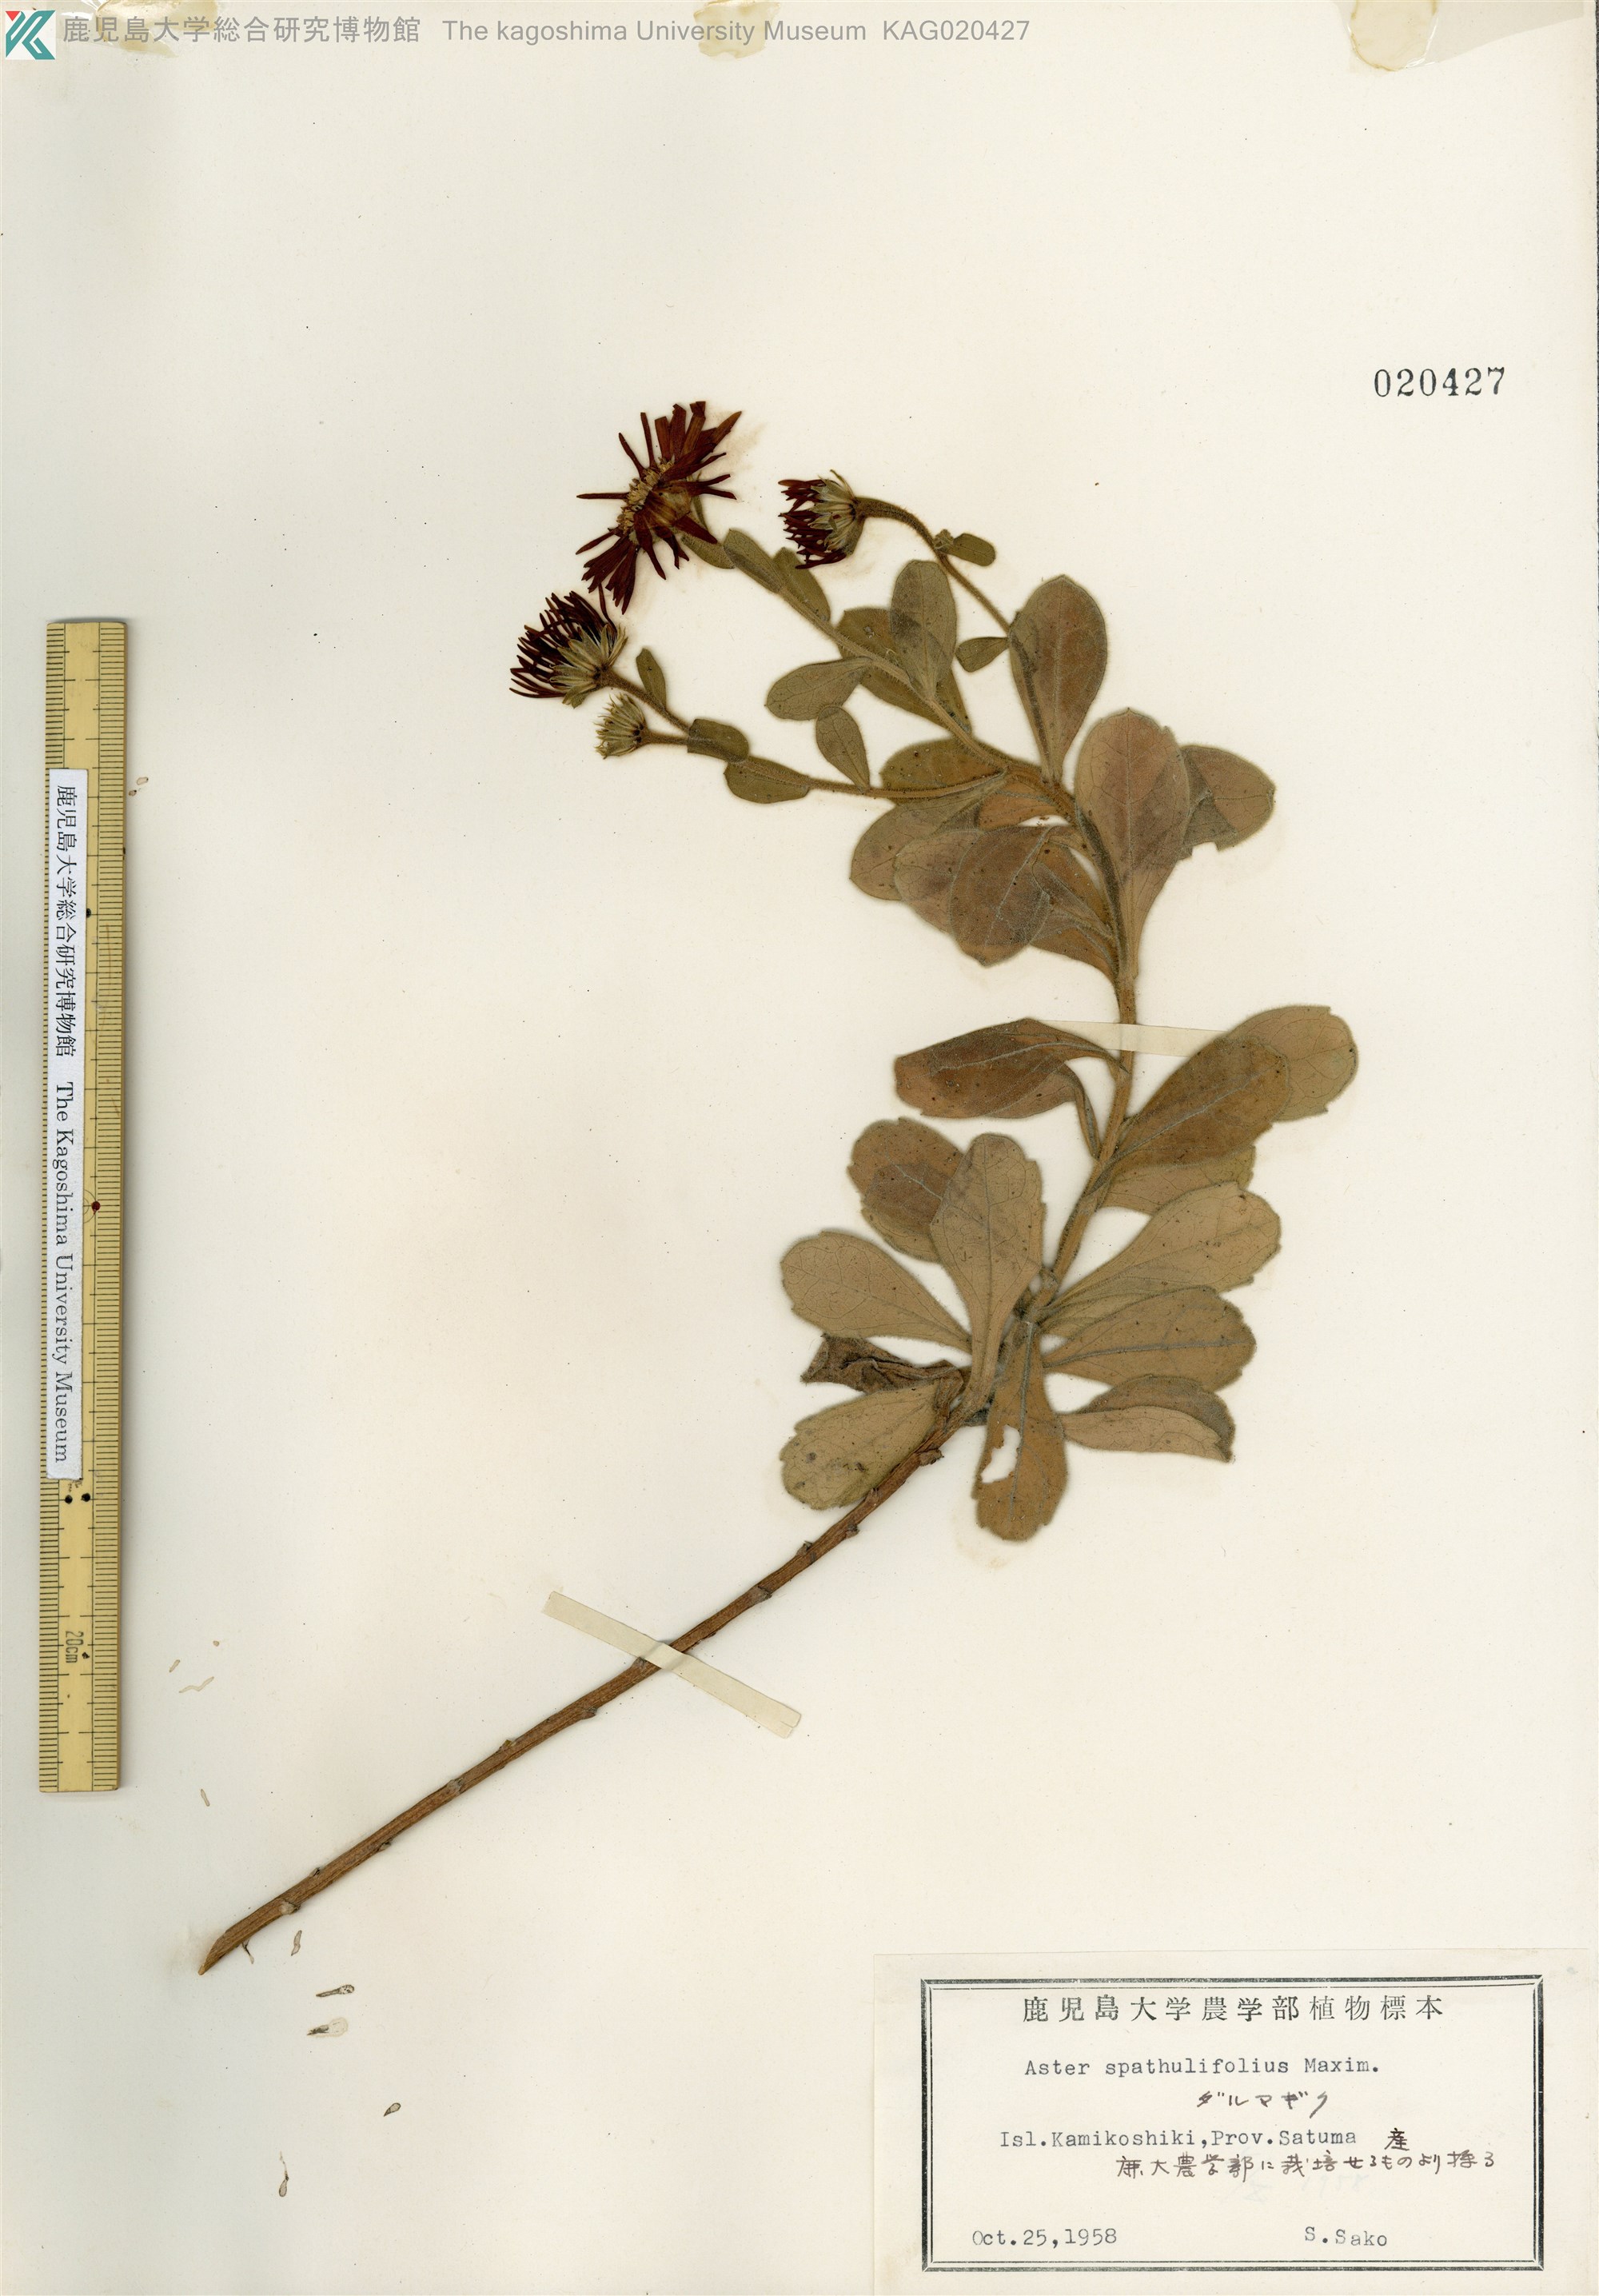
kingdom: Plantae
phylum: Tracheophyta
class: Magnoliopsida
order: Asterales
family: Asteraceae
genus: Aster
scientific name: Aster spathulifolius
